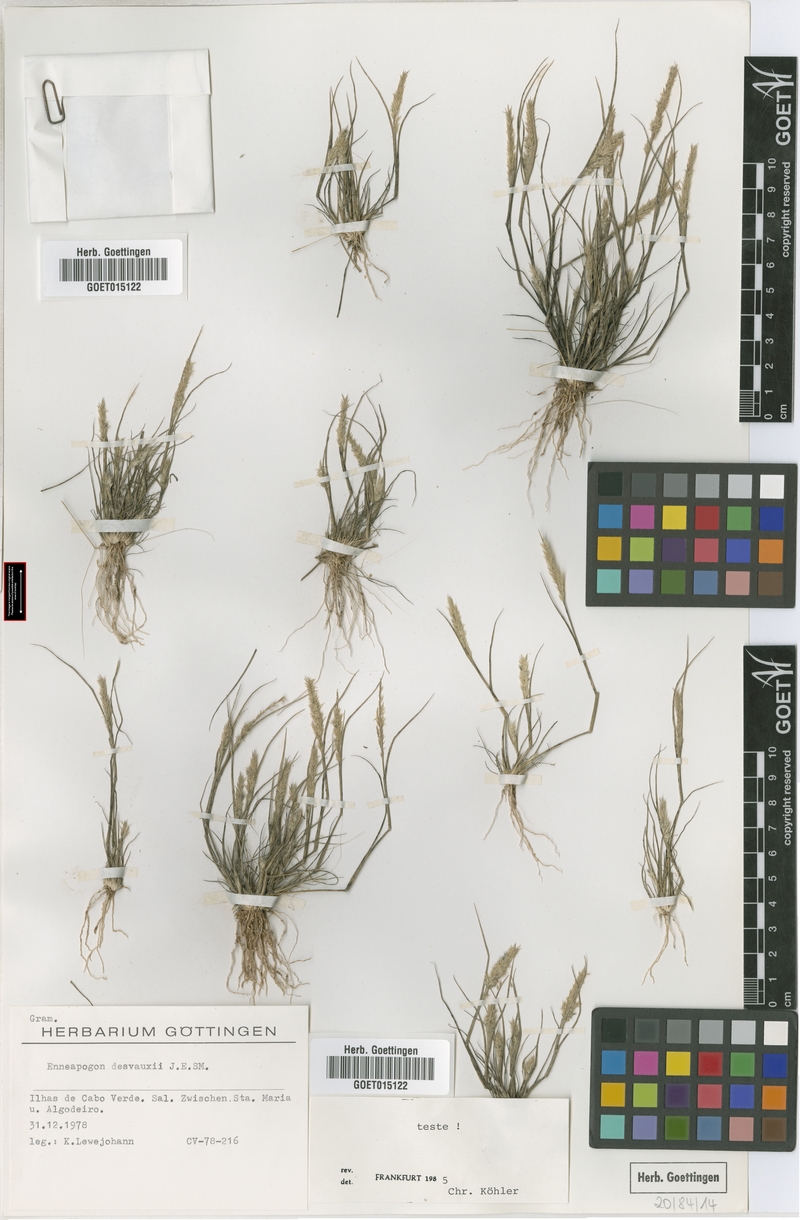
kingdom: Plantae
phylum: Tracheophyta
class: Liliopsida
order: Poales
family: Poaceae
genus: Enneapogon
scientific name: Enneapogon desvauxii
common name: Feather pappus grass
